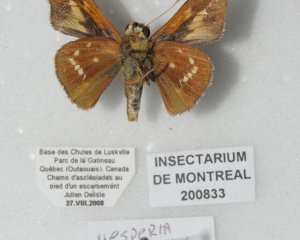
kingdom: Animalia
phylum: Arthropoda
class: Insecta
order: Lepidoptera
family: Hesperiidae
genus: Hesperia
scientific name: Hesperia leonardus
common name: Leonard's Skipper
